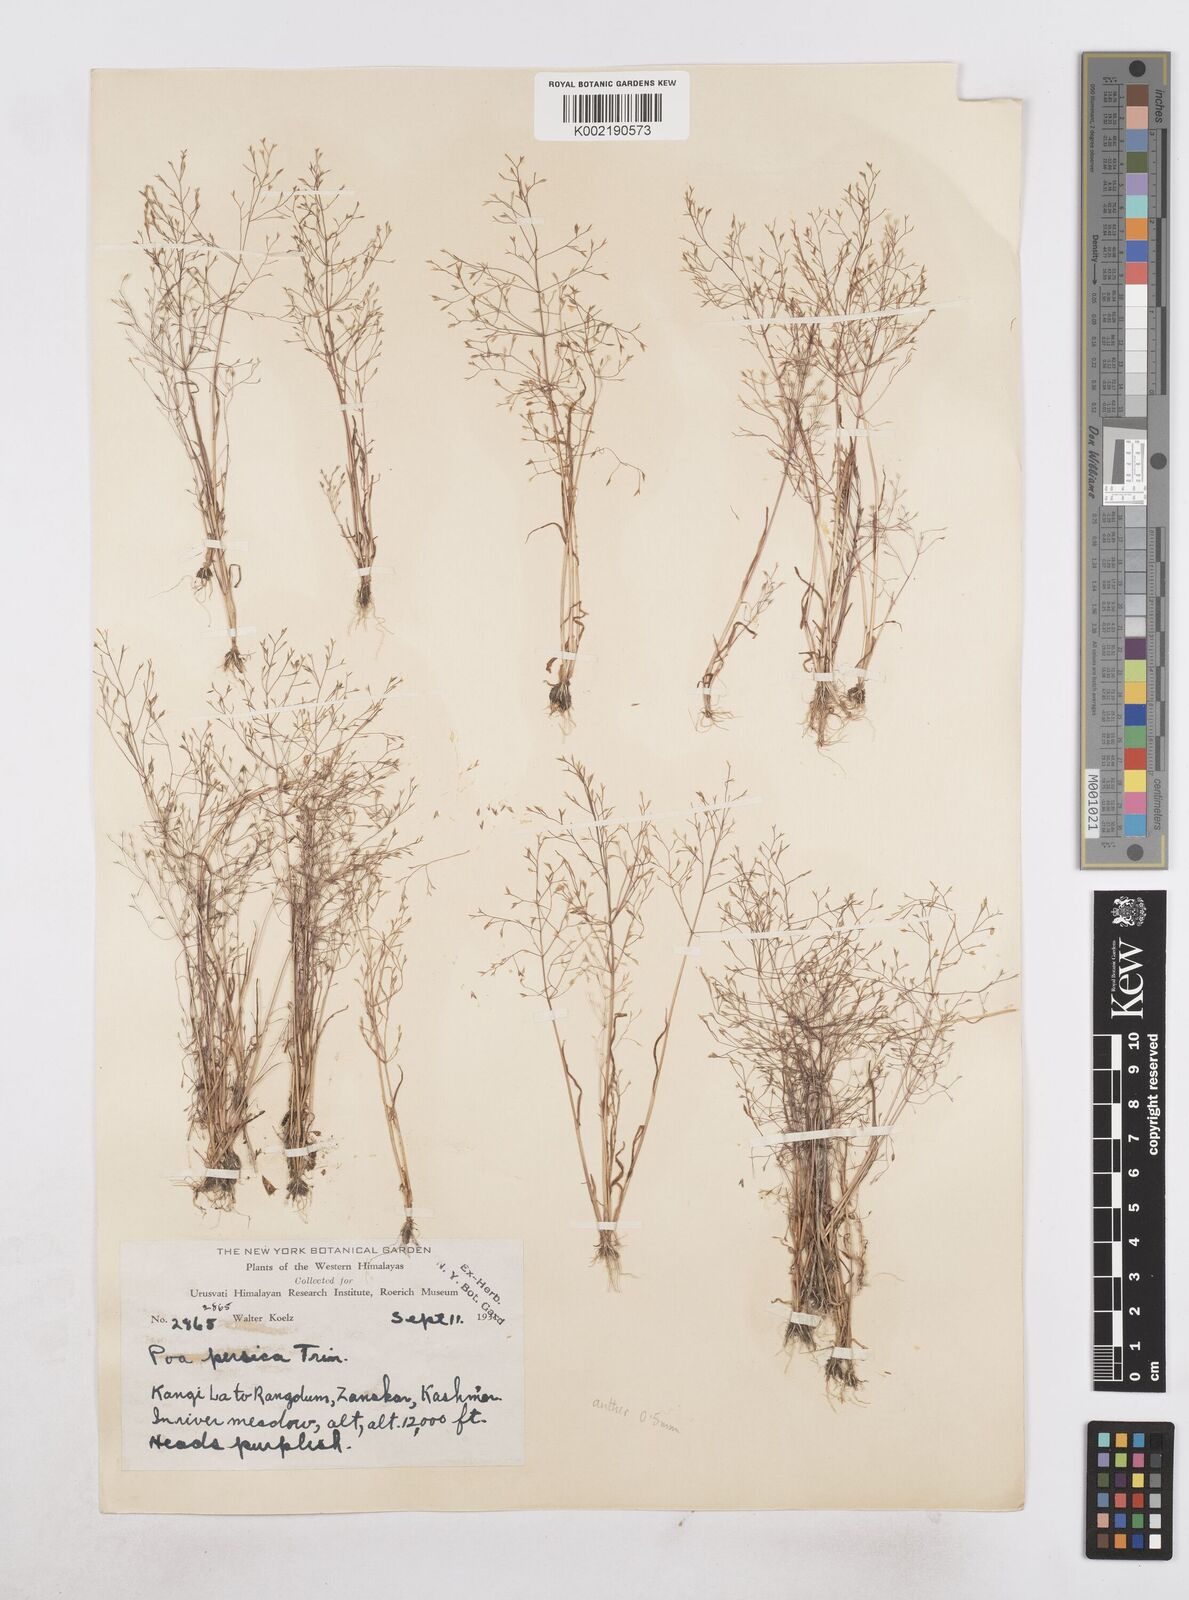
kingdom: Plantae
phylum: Tracheophyta
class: Liliopsida
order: Poales
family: Poaceae
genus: Poa
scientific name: Poa diaphora
